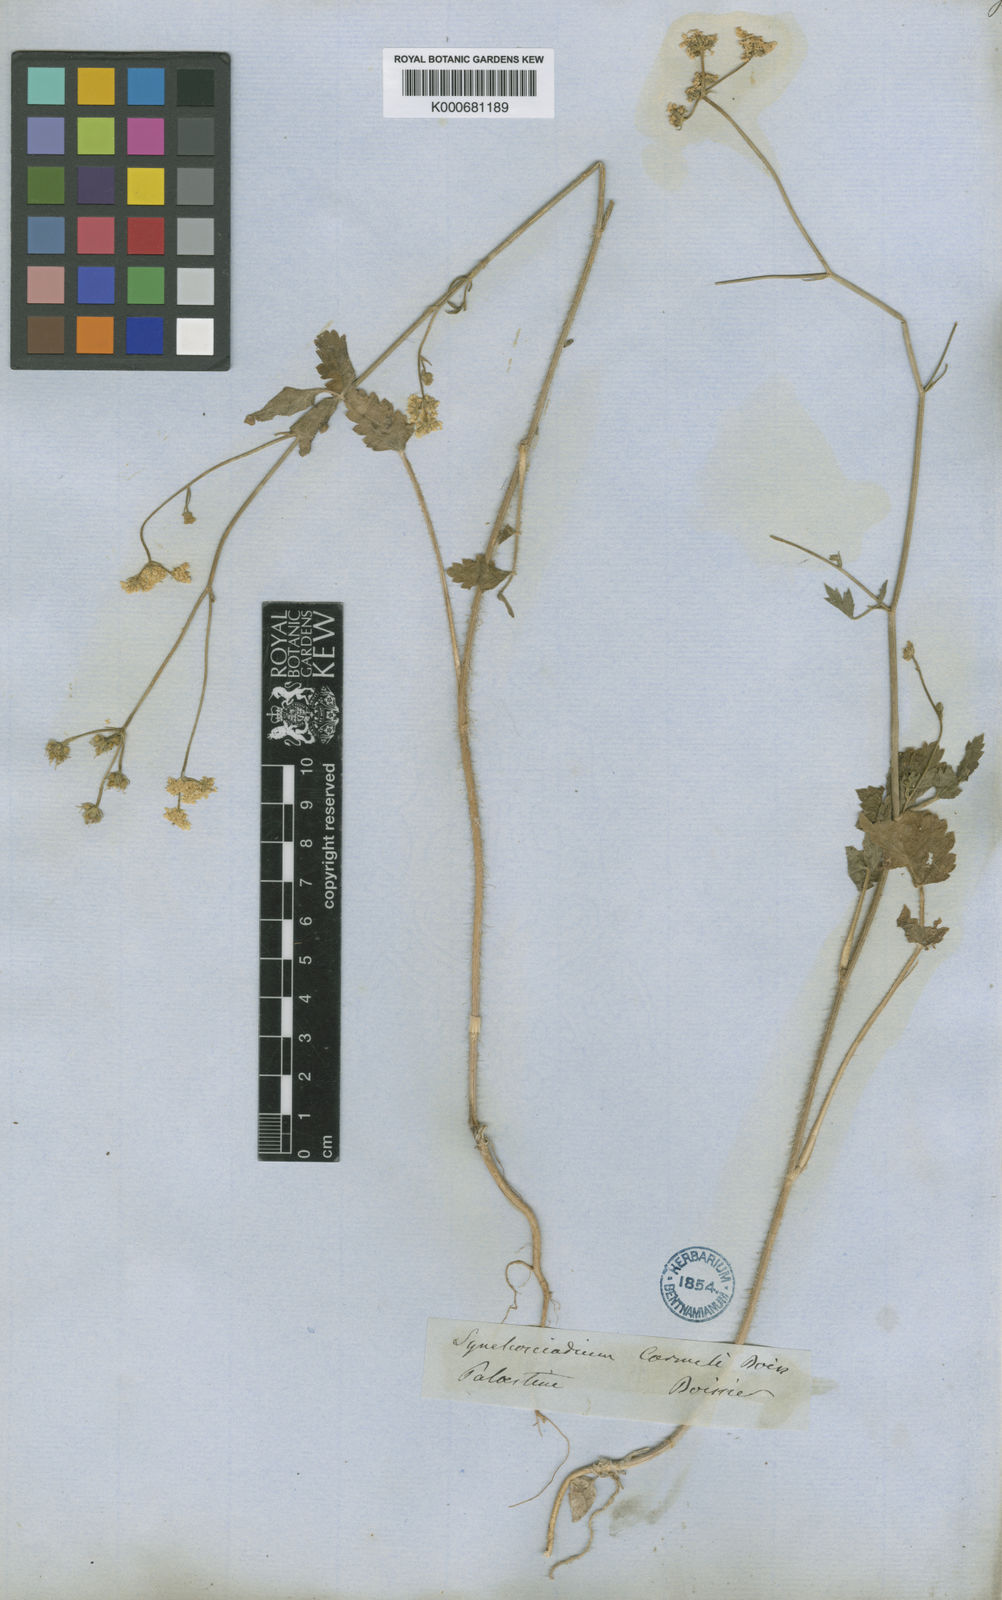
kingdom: Plantae
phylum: Tracheophyta
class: Magnoliopsida
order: Apiales
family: Apiaceae
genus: Synelcosciadium
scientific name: Synelcosciadium carmeli
